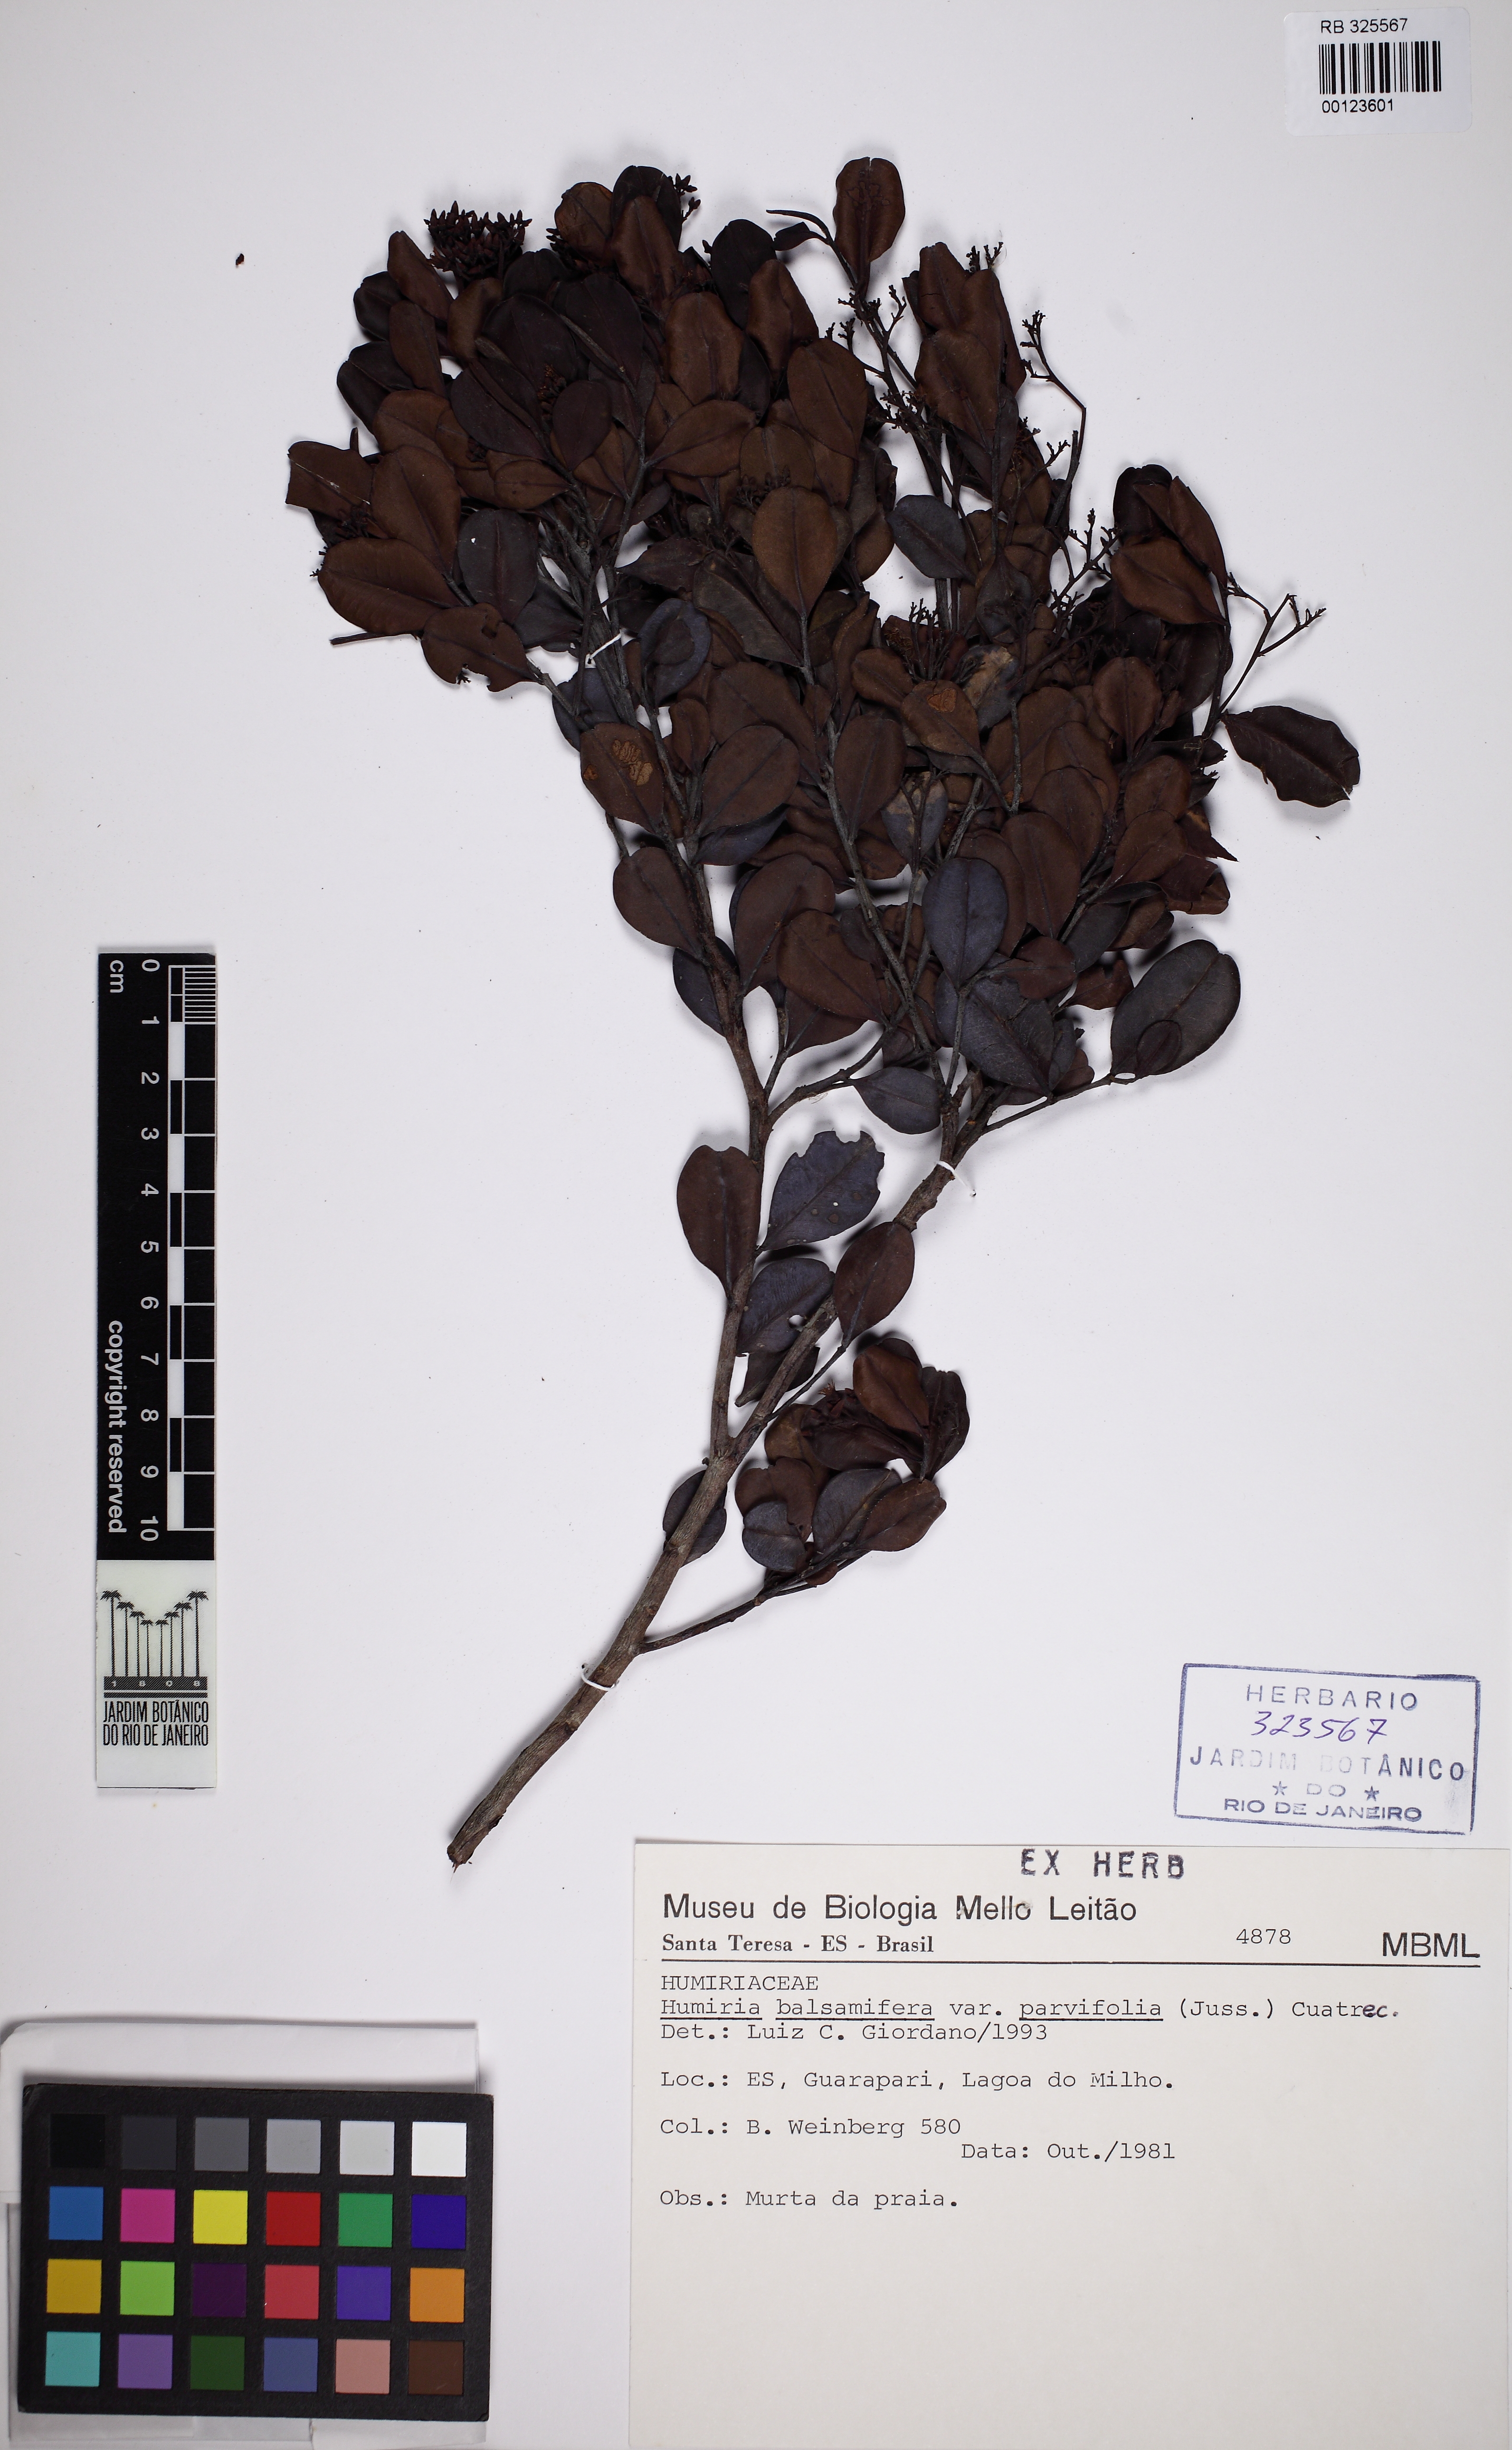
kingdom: Plantae
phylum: Tracheophyta
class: Magnoliopsida
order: Malpighiales
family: Humiriaceae
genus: Humiria
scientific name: Humiria balsamifera
